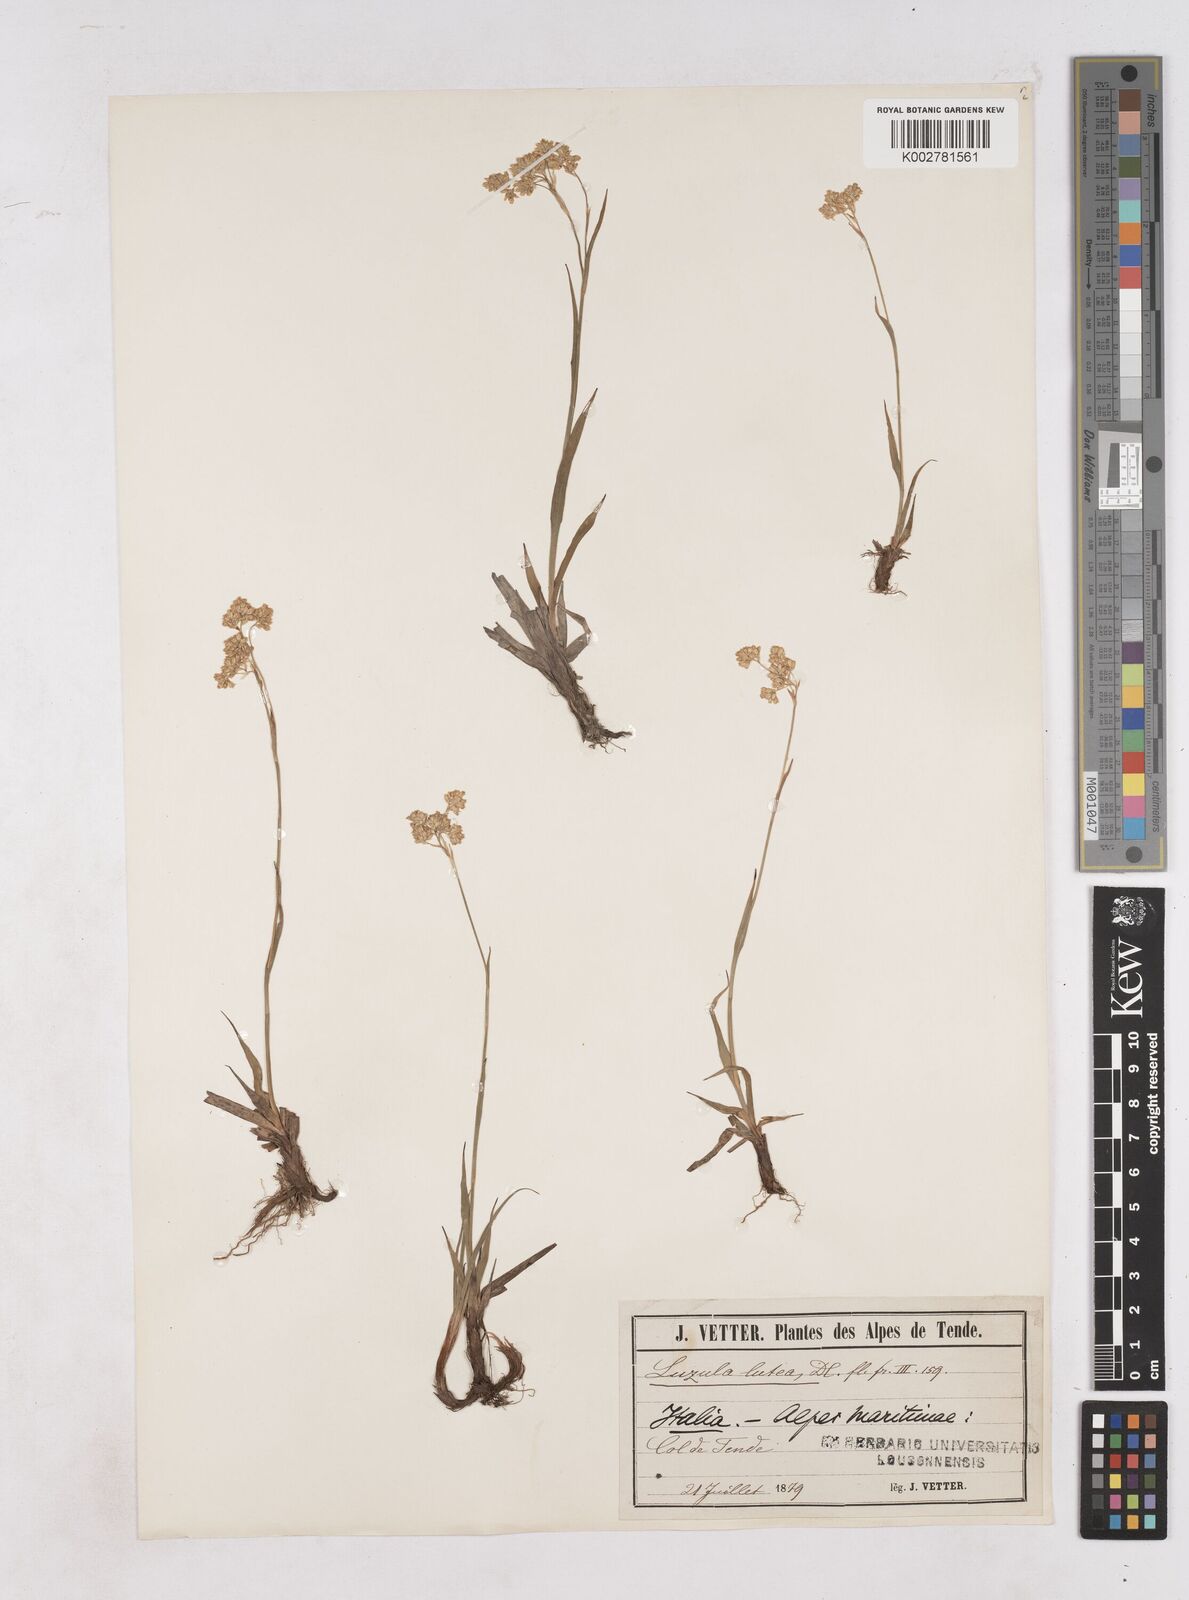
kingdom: Plantae
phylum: Tracheophyta
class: Liliopsida
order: Poales
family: Juncaceae
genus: Luzula
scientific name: Luzula lutea
